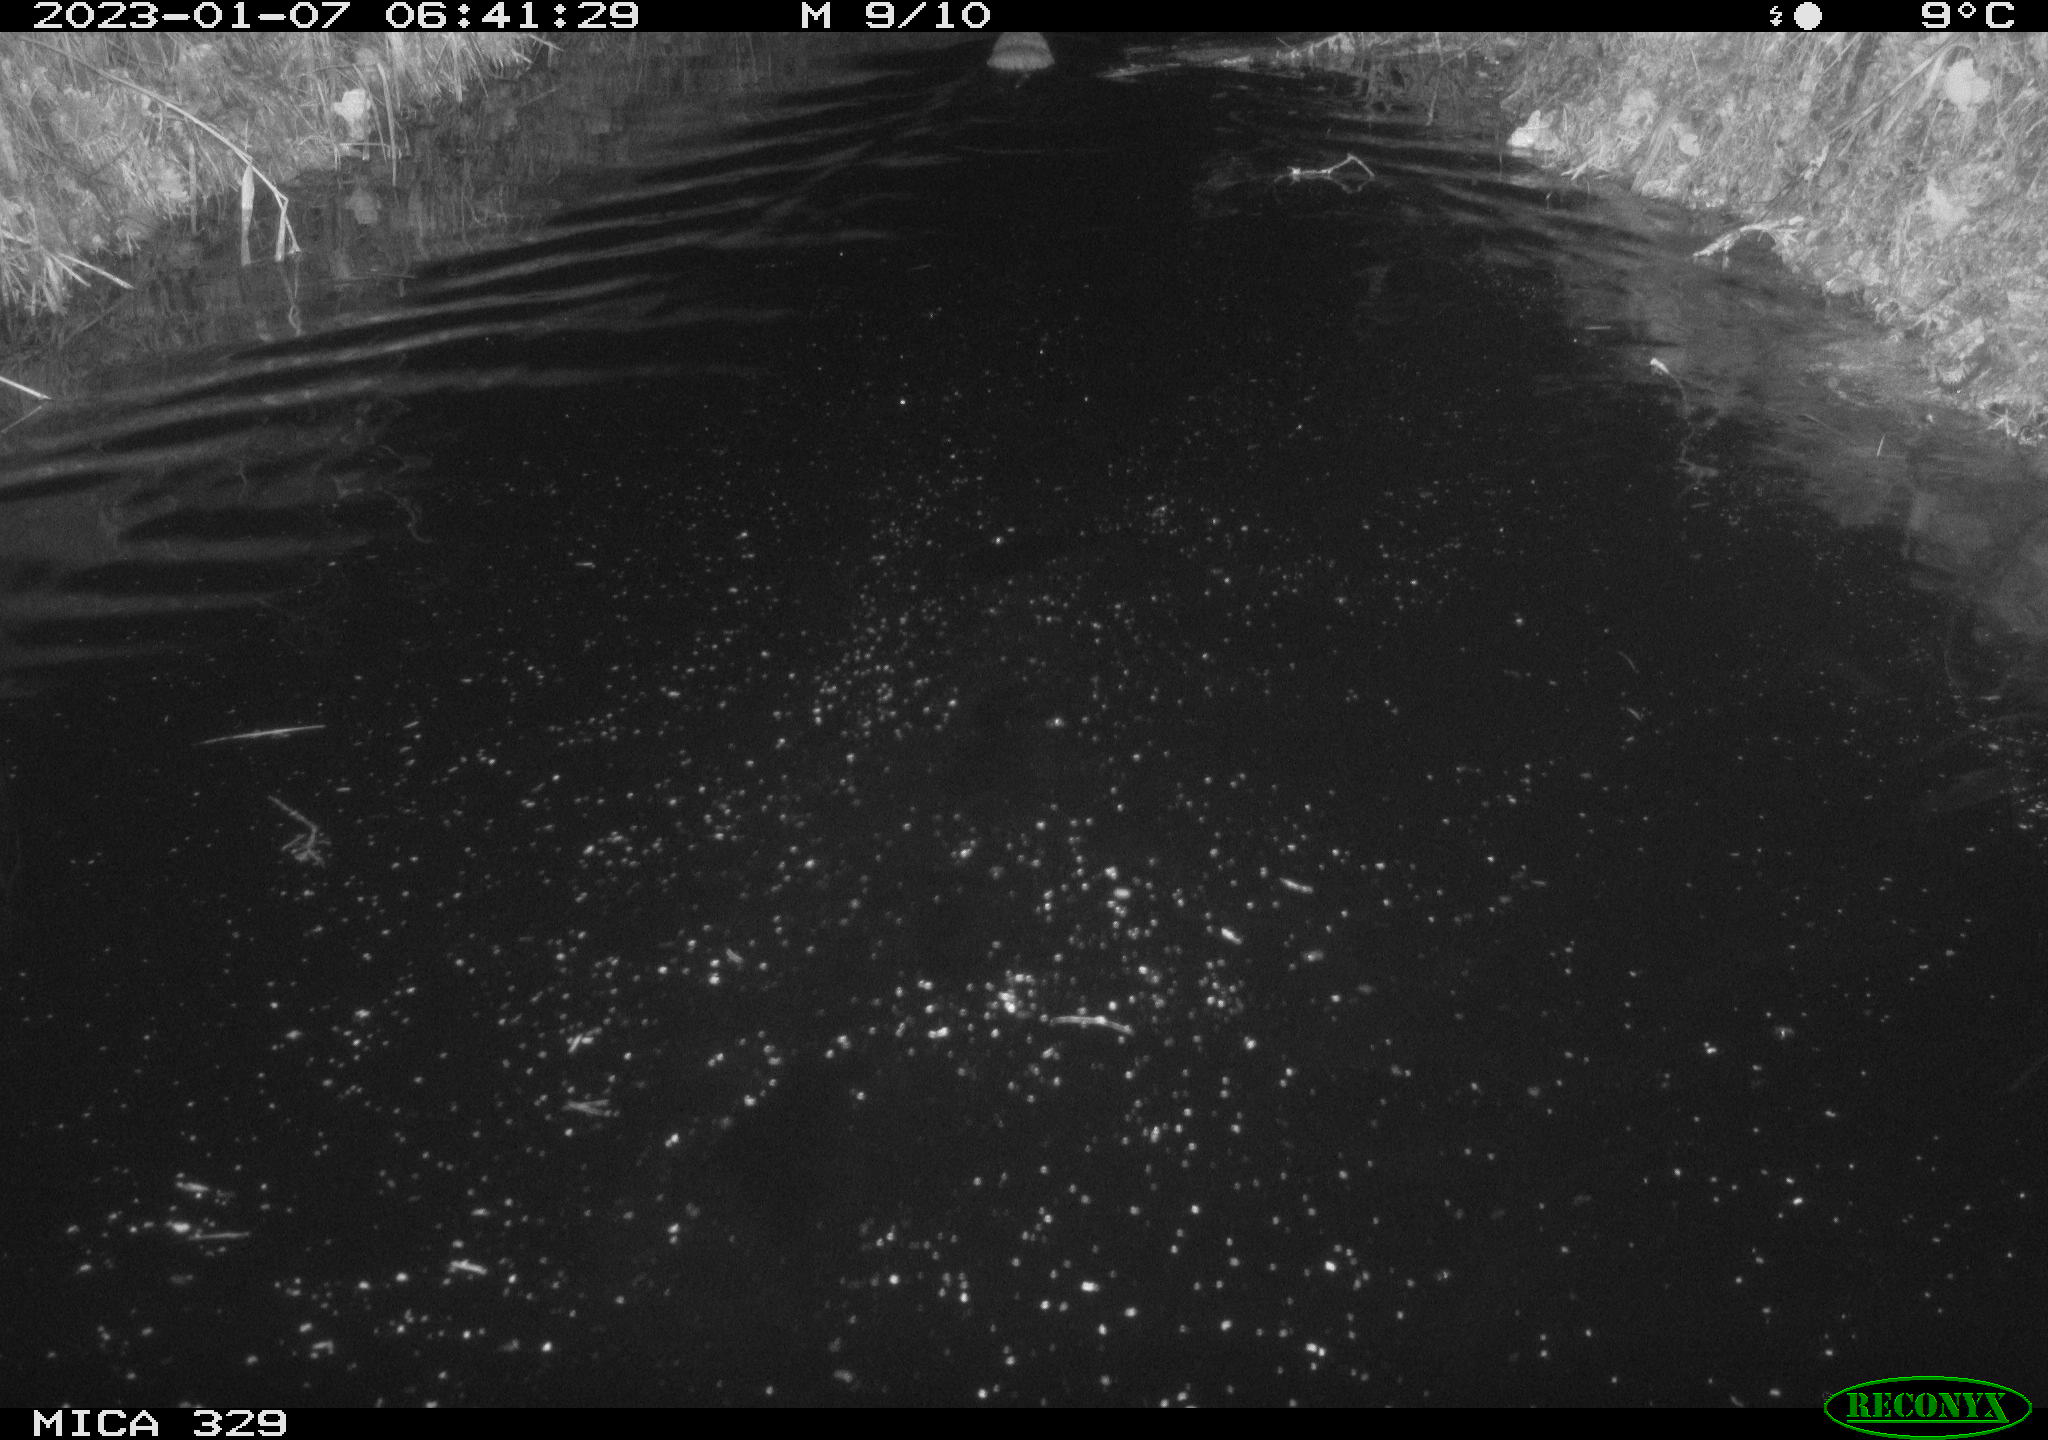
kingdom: Animalia
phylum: Chordata
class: Mammalia
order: Rodentia
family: Cricetidae
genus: Ondatra
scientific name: Ondatra zibethicus
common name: Muskrat
